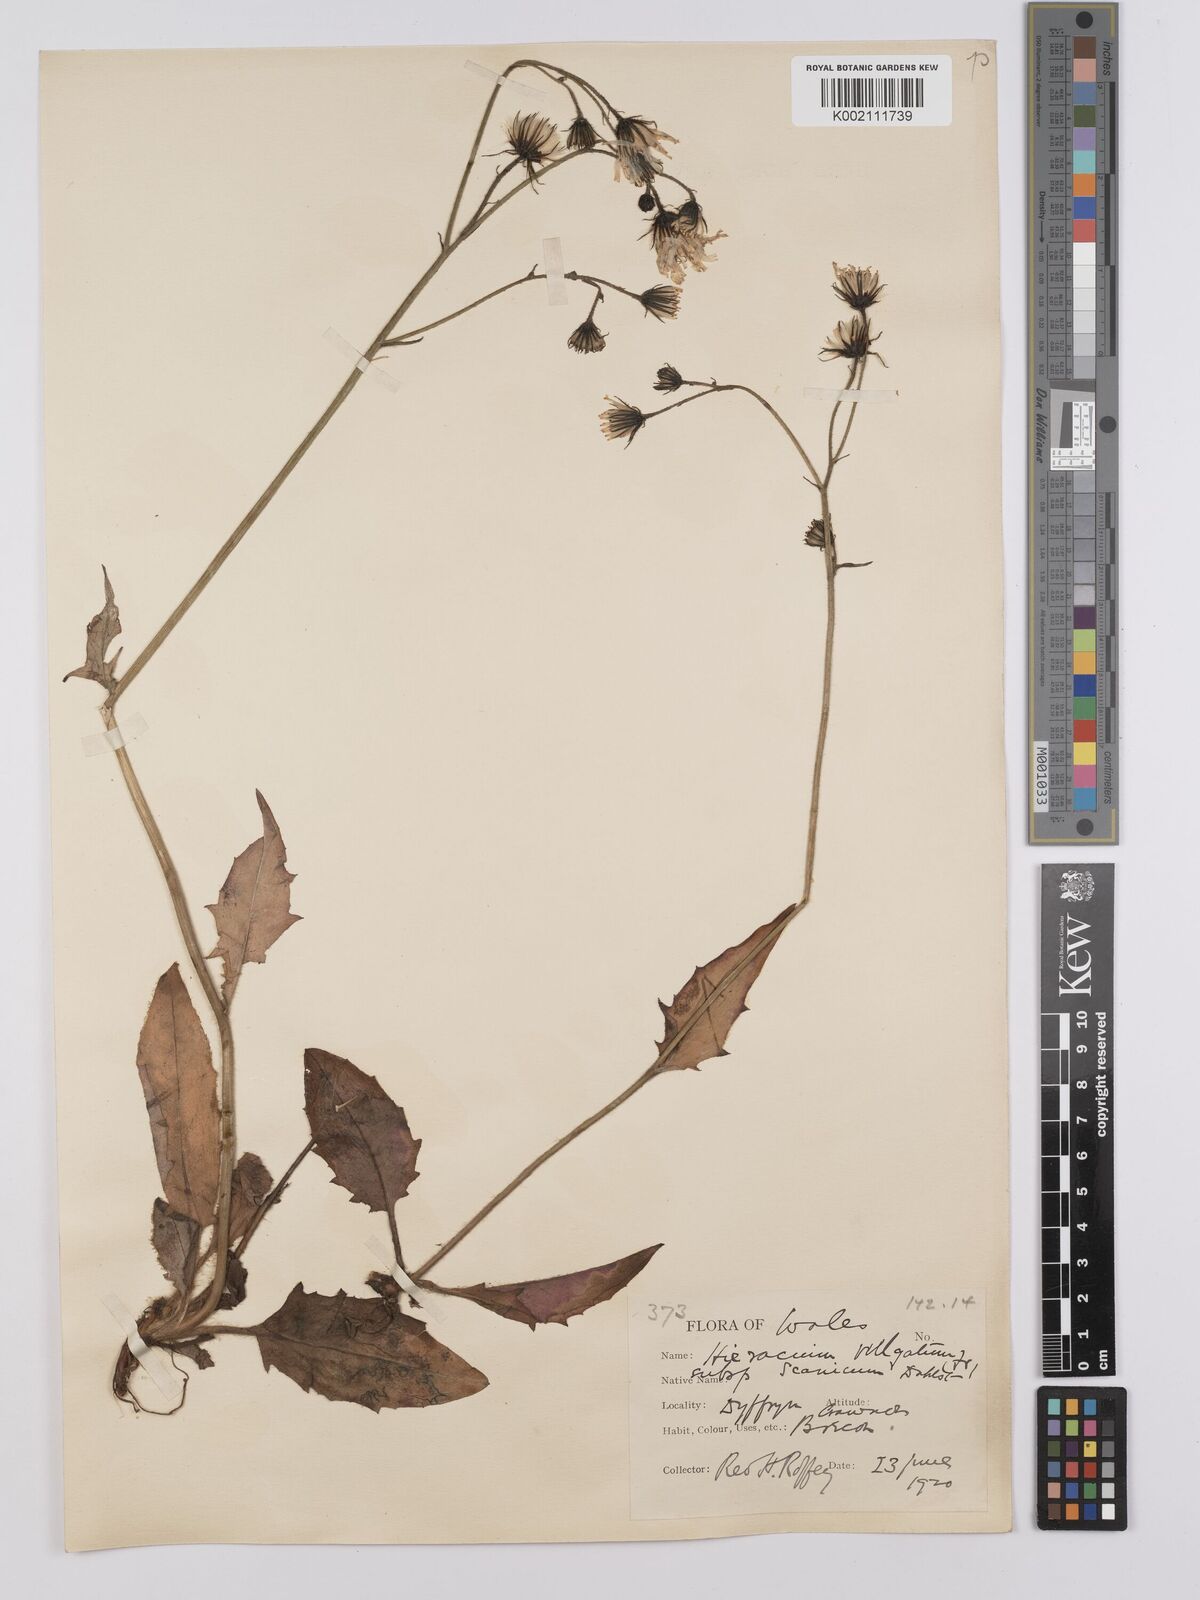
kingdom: Plantae
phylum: Tracheophyta
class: Magnoliopsida
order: Asterales
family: Asteraceae
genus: Hieracium
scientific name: Hieracium anglorum
